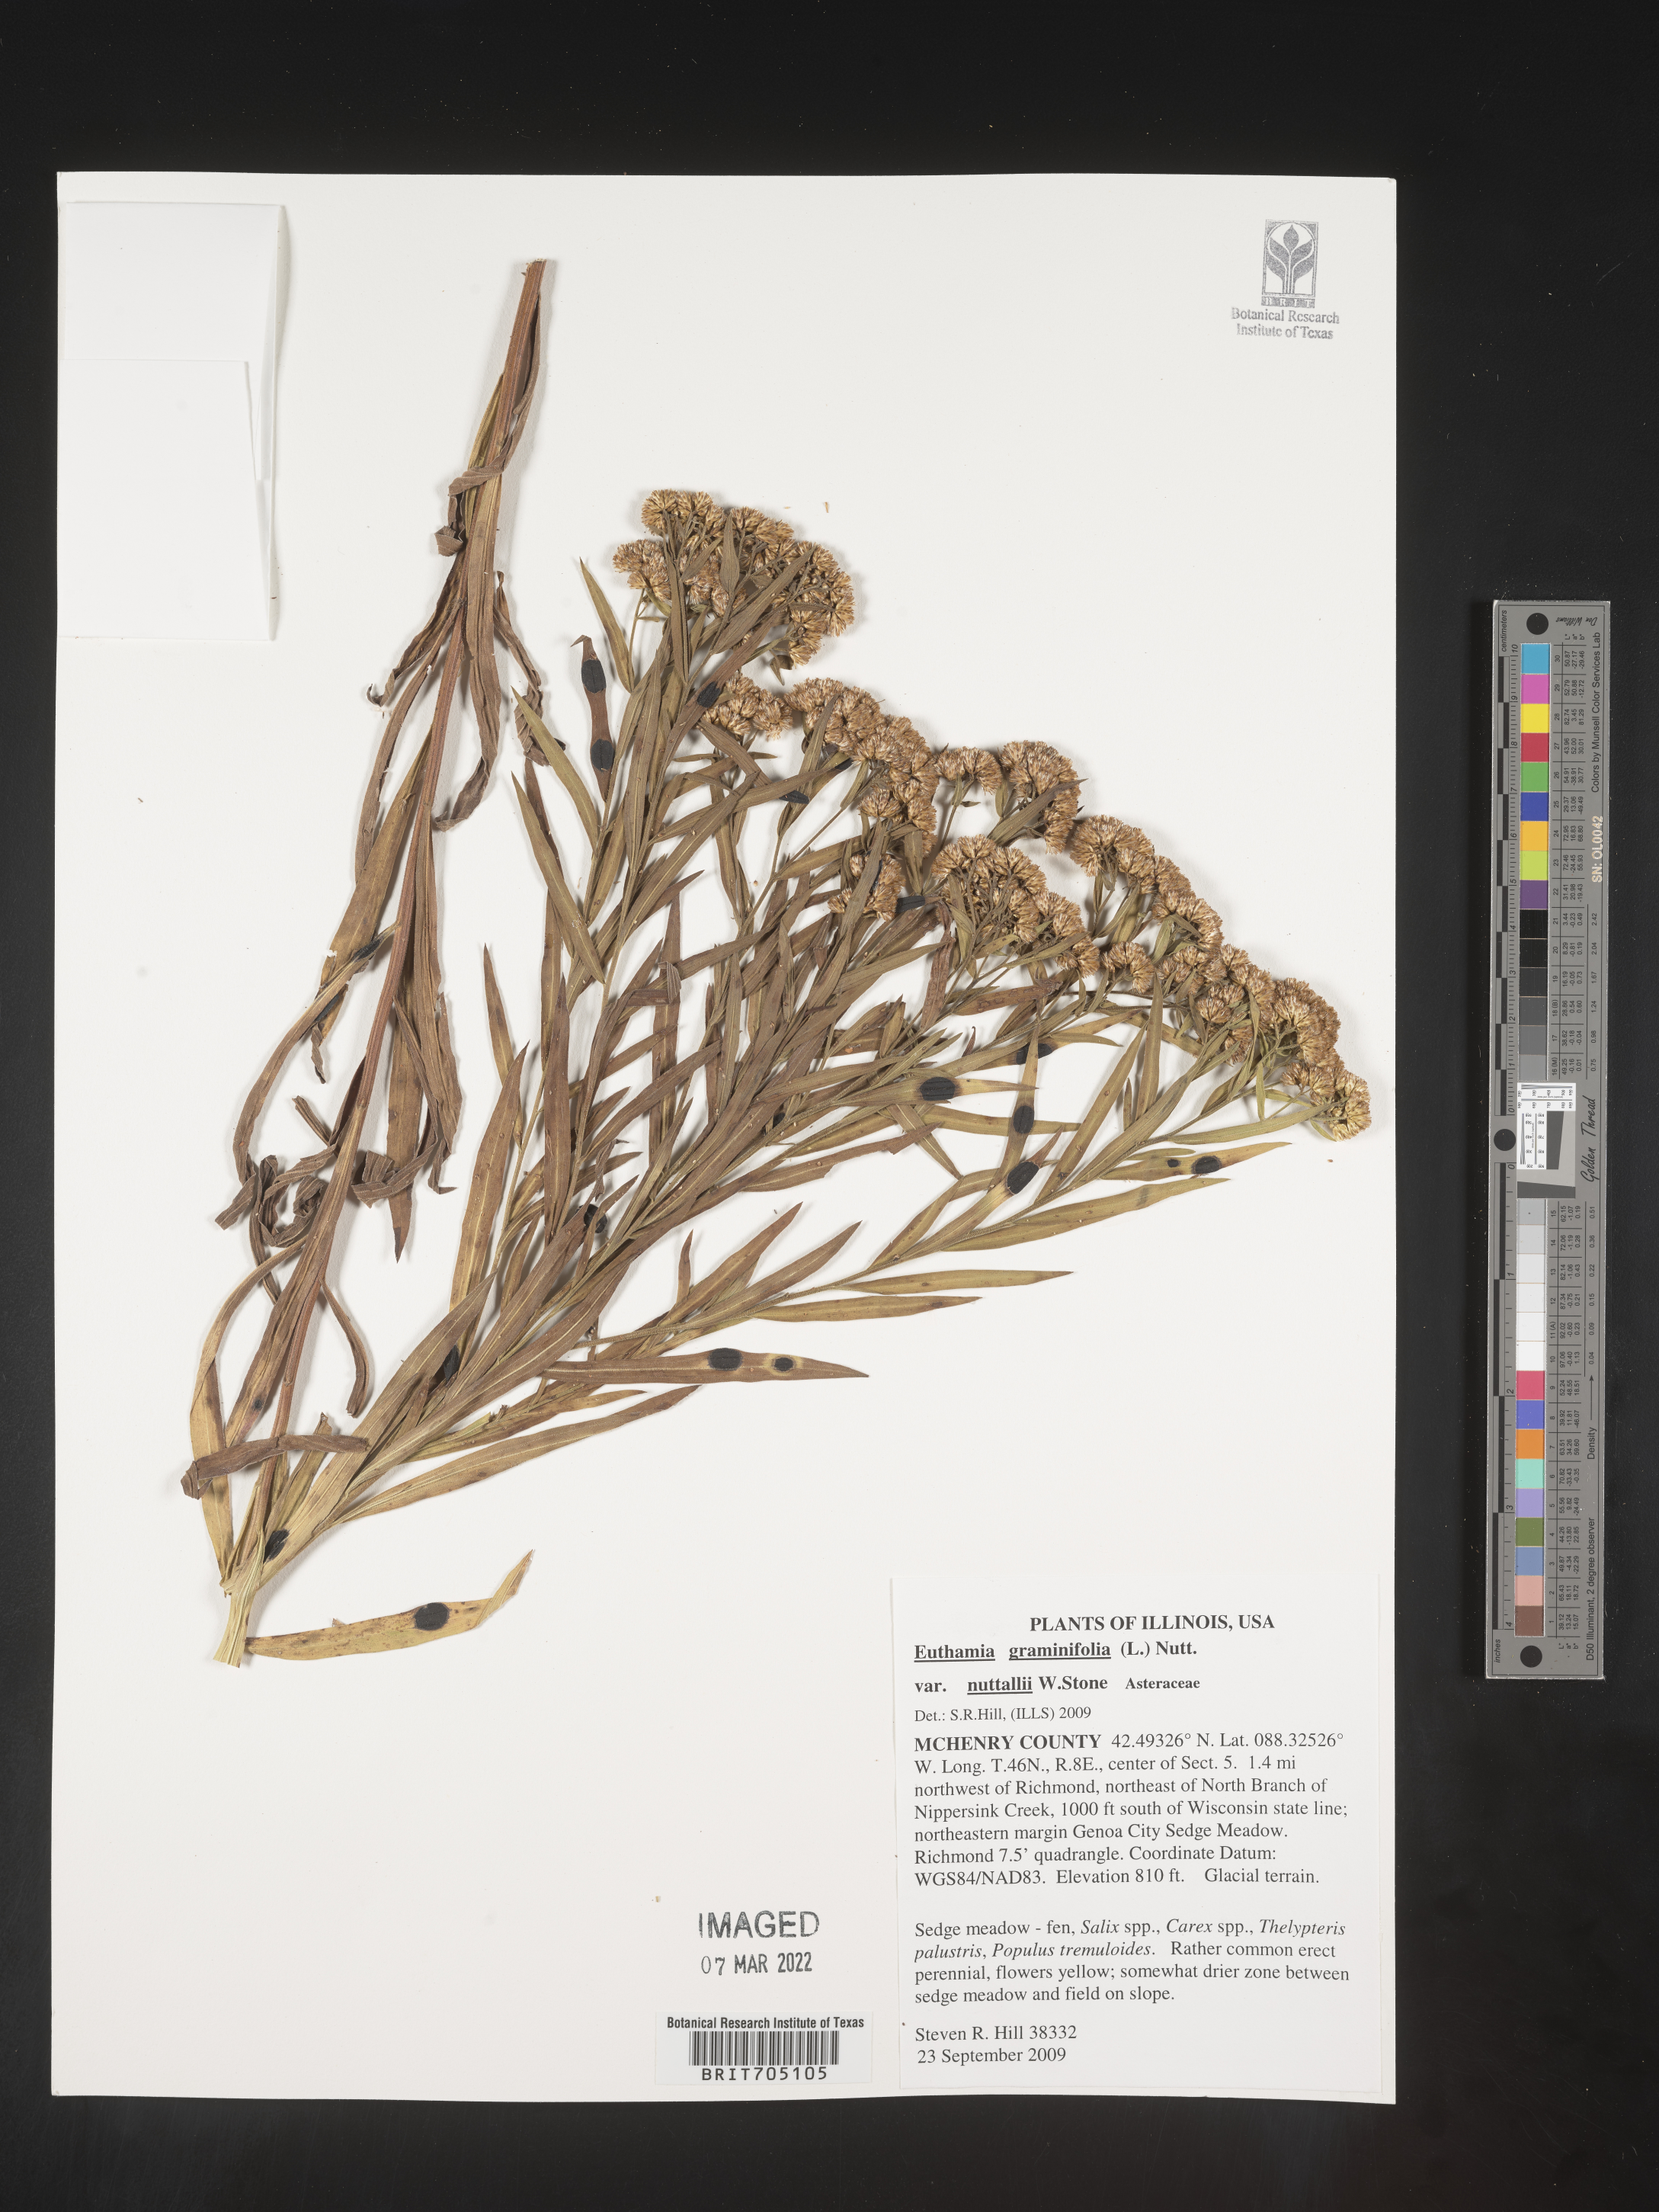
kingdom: Plantae
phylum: Tracheophyta
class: Magnoliopsida
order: Asterales
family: Asteraceae
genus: Euthamia
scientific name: Euthamia graminifolia
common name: Common goldentop
